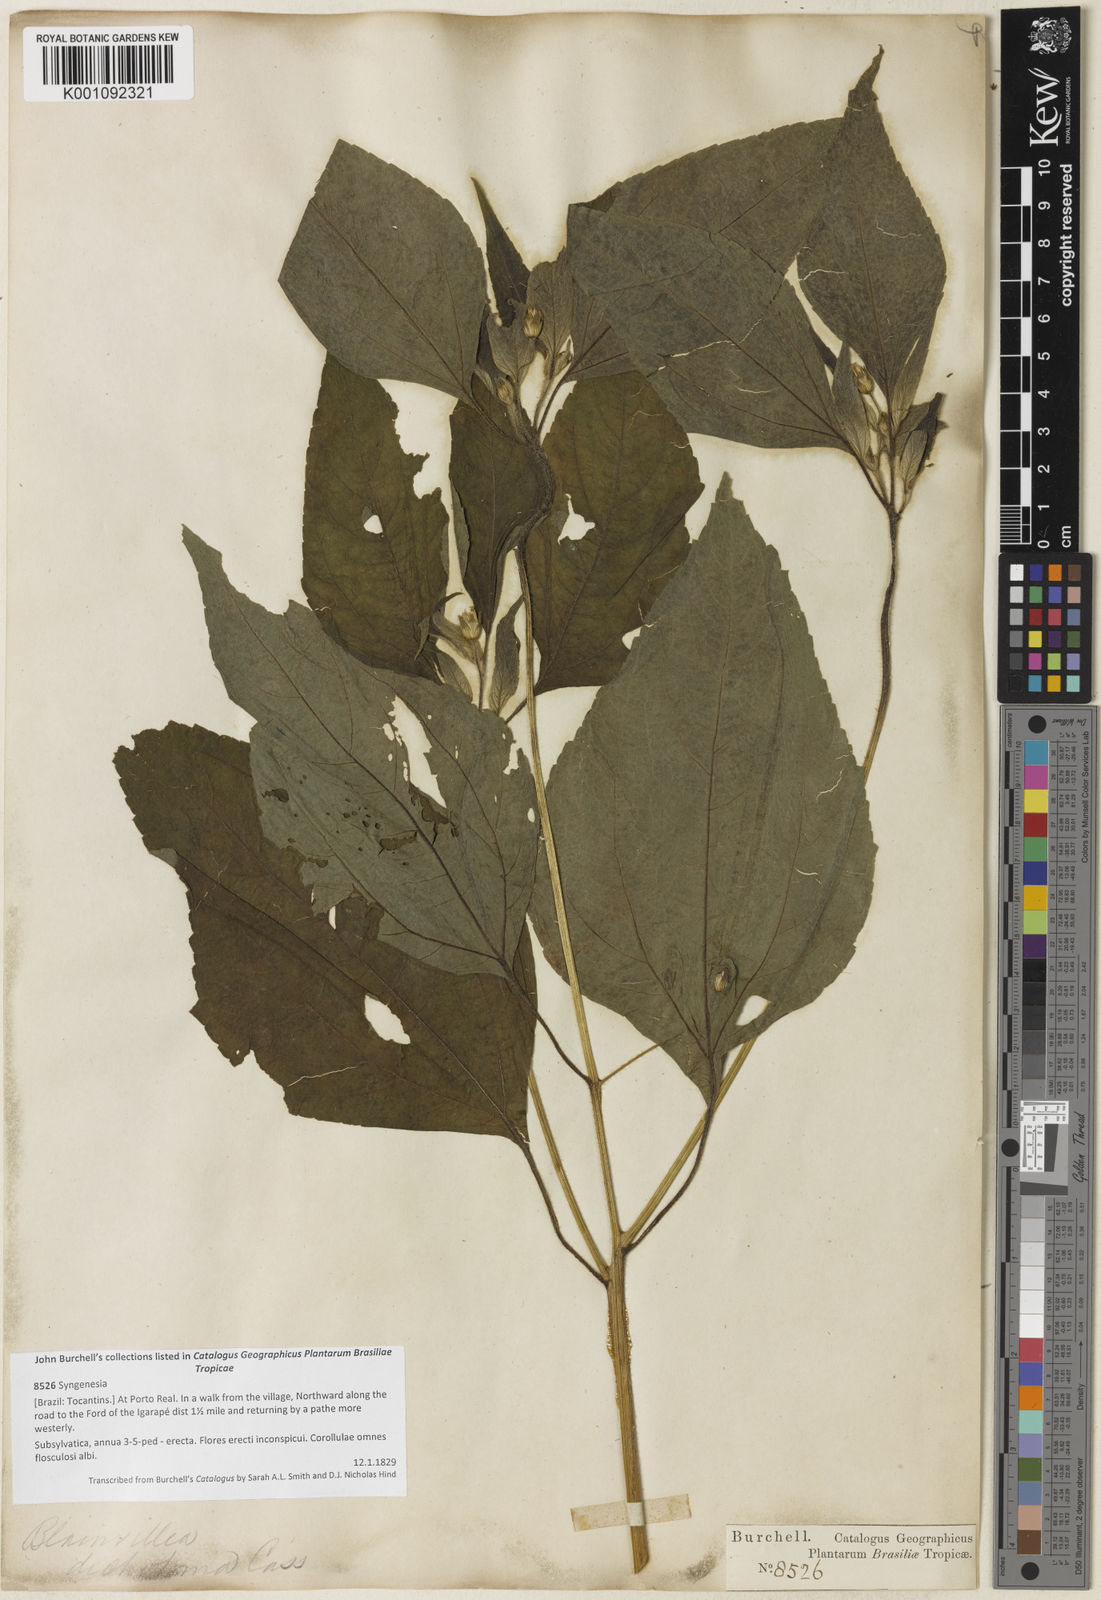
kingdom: Plantae
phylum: Tracheophyta
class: Magnoliopsida
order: Asterales
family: Asteraceae
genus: Blainvillea
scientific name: Blainvillea
